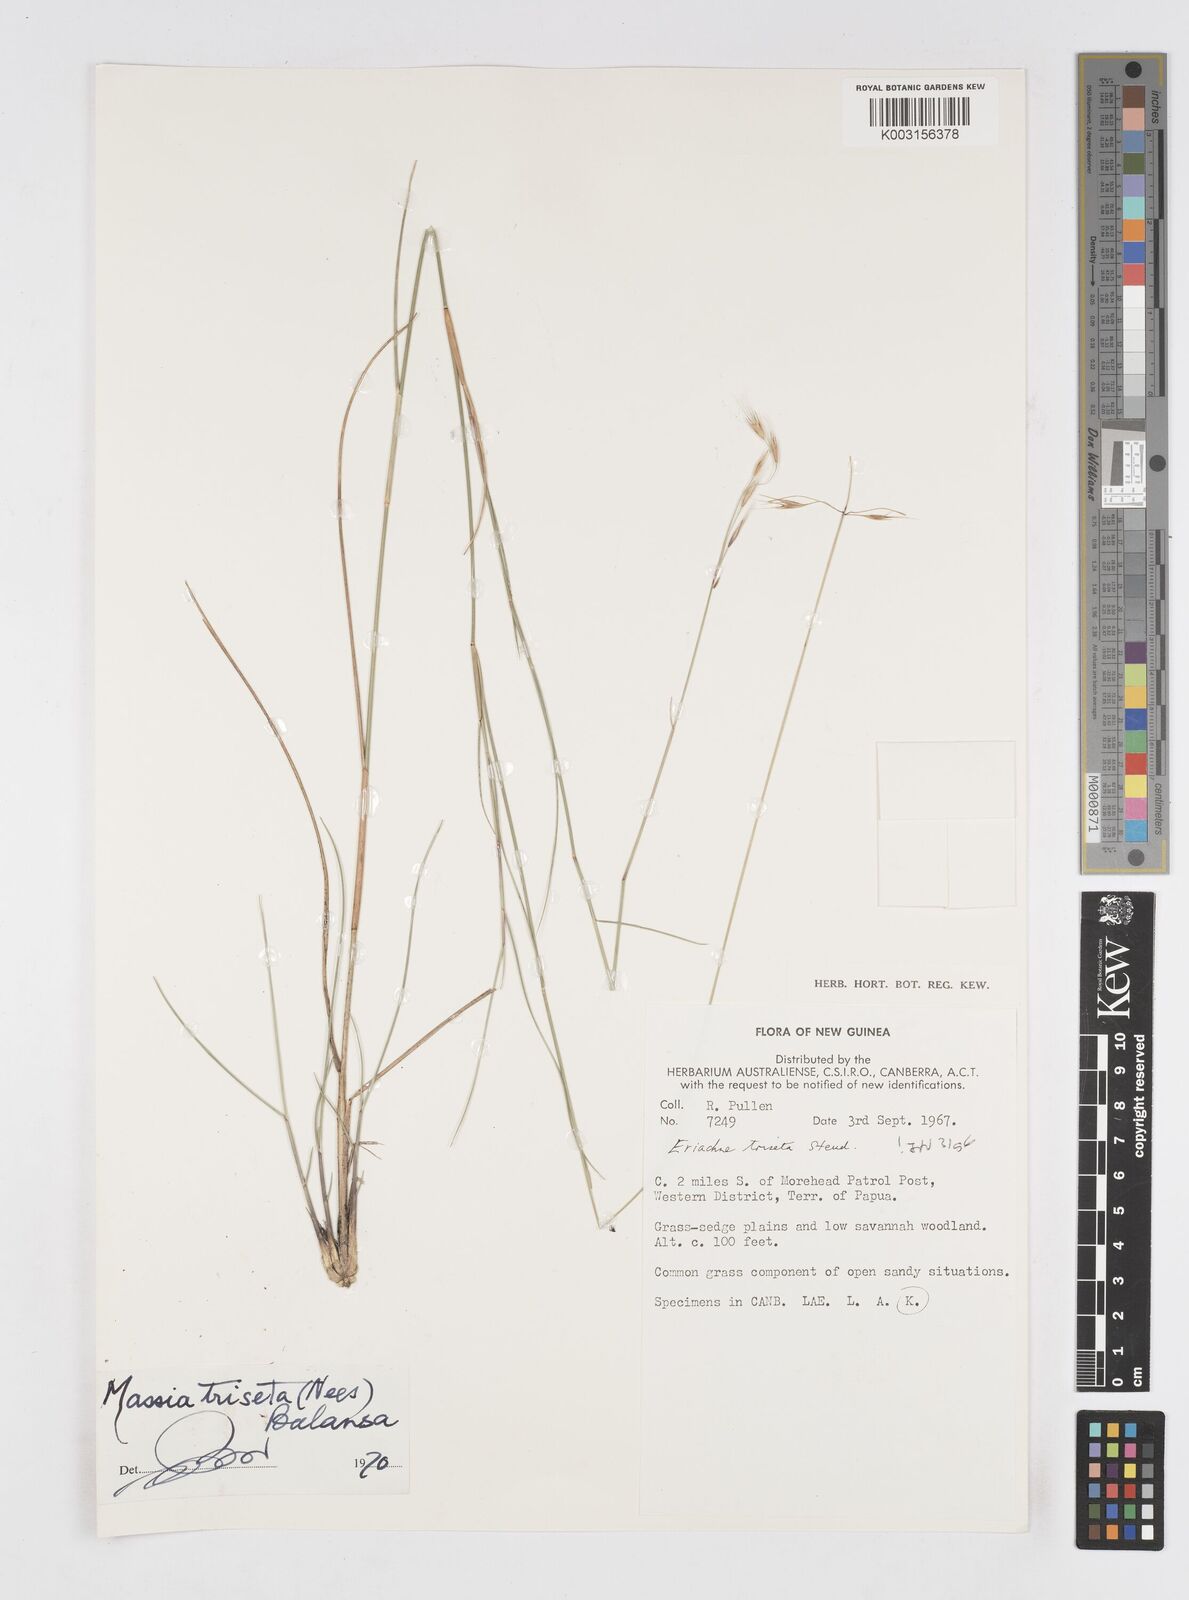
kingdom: Plantae
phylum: Tracheophyta
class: Liliopsida
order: Poales
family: Poaceae
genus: Eriachne
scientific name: Eriachne triseta
